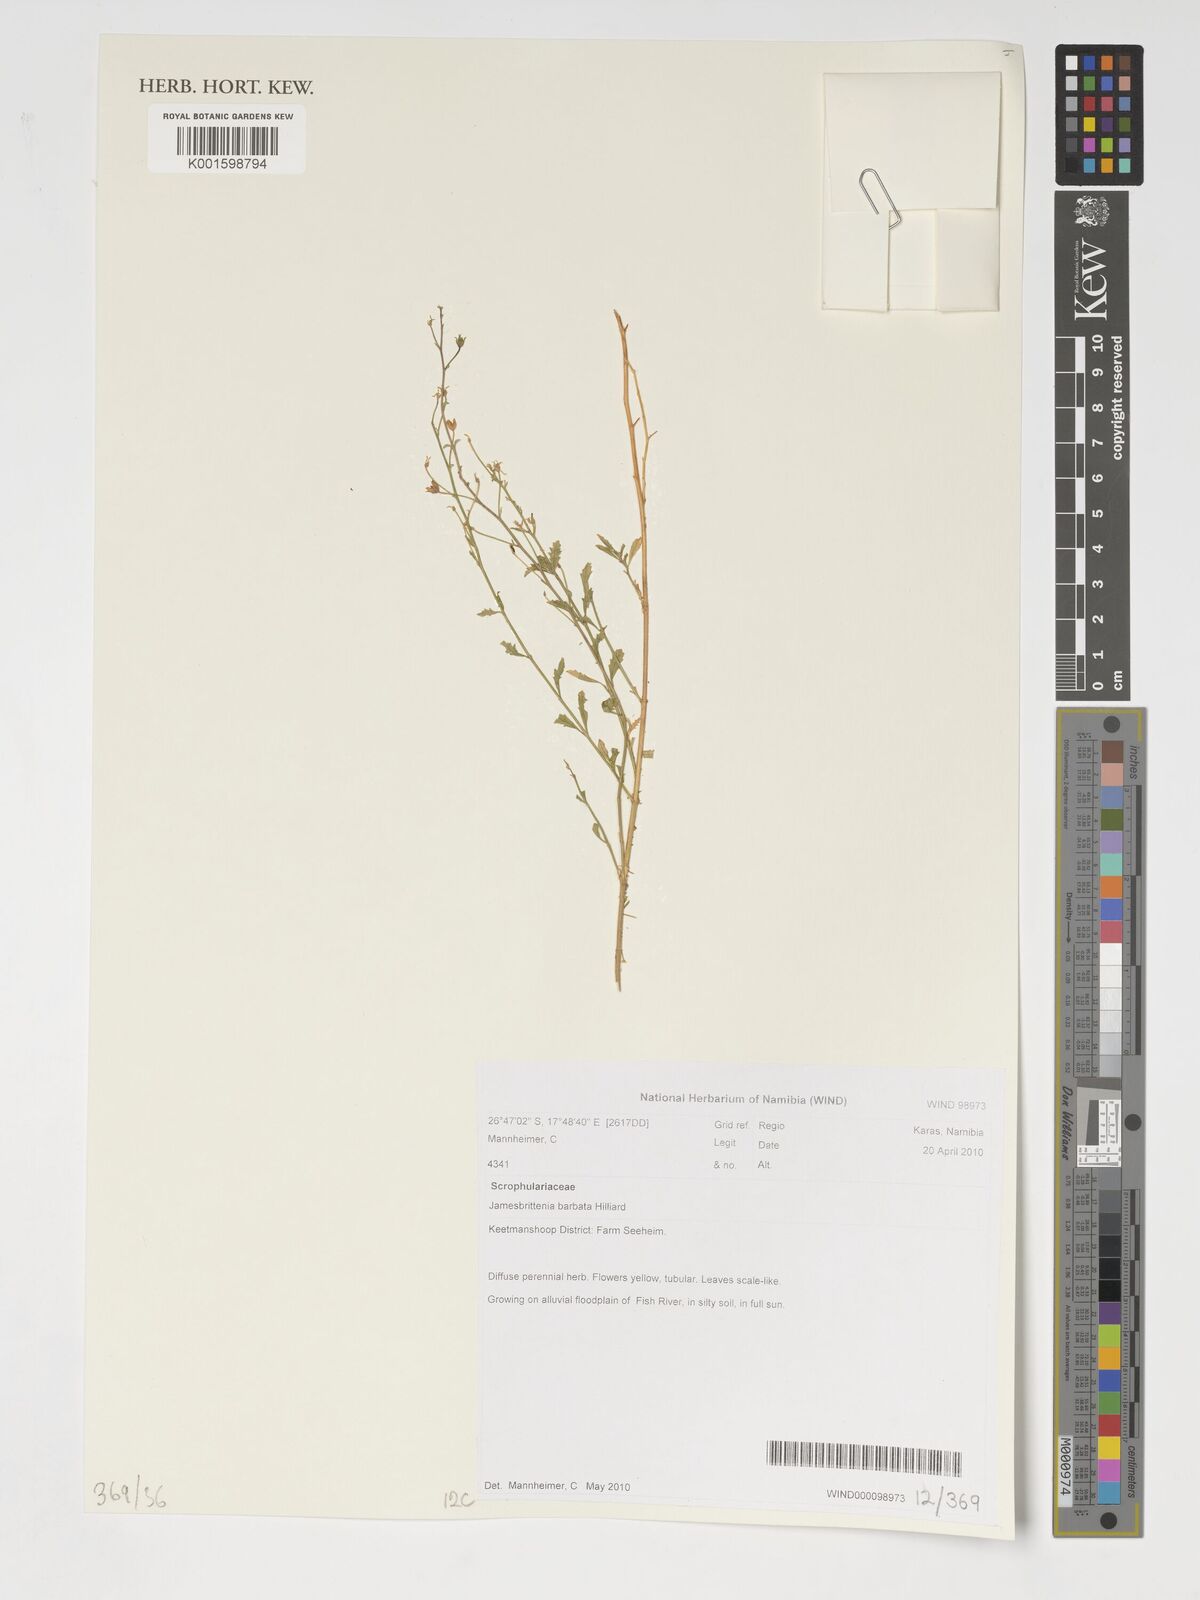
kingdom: Plantae
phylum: Tracheophyta
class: Magnoliopsida
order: Lamiales
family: Scrophulariaceae
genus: Jamesbrittenia
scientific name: Jamesbrittenia barbata
